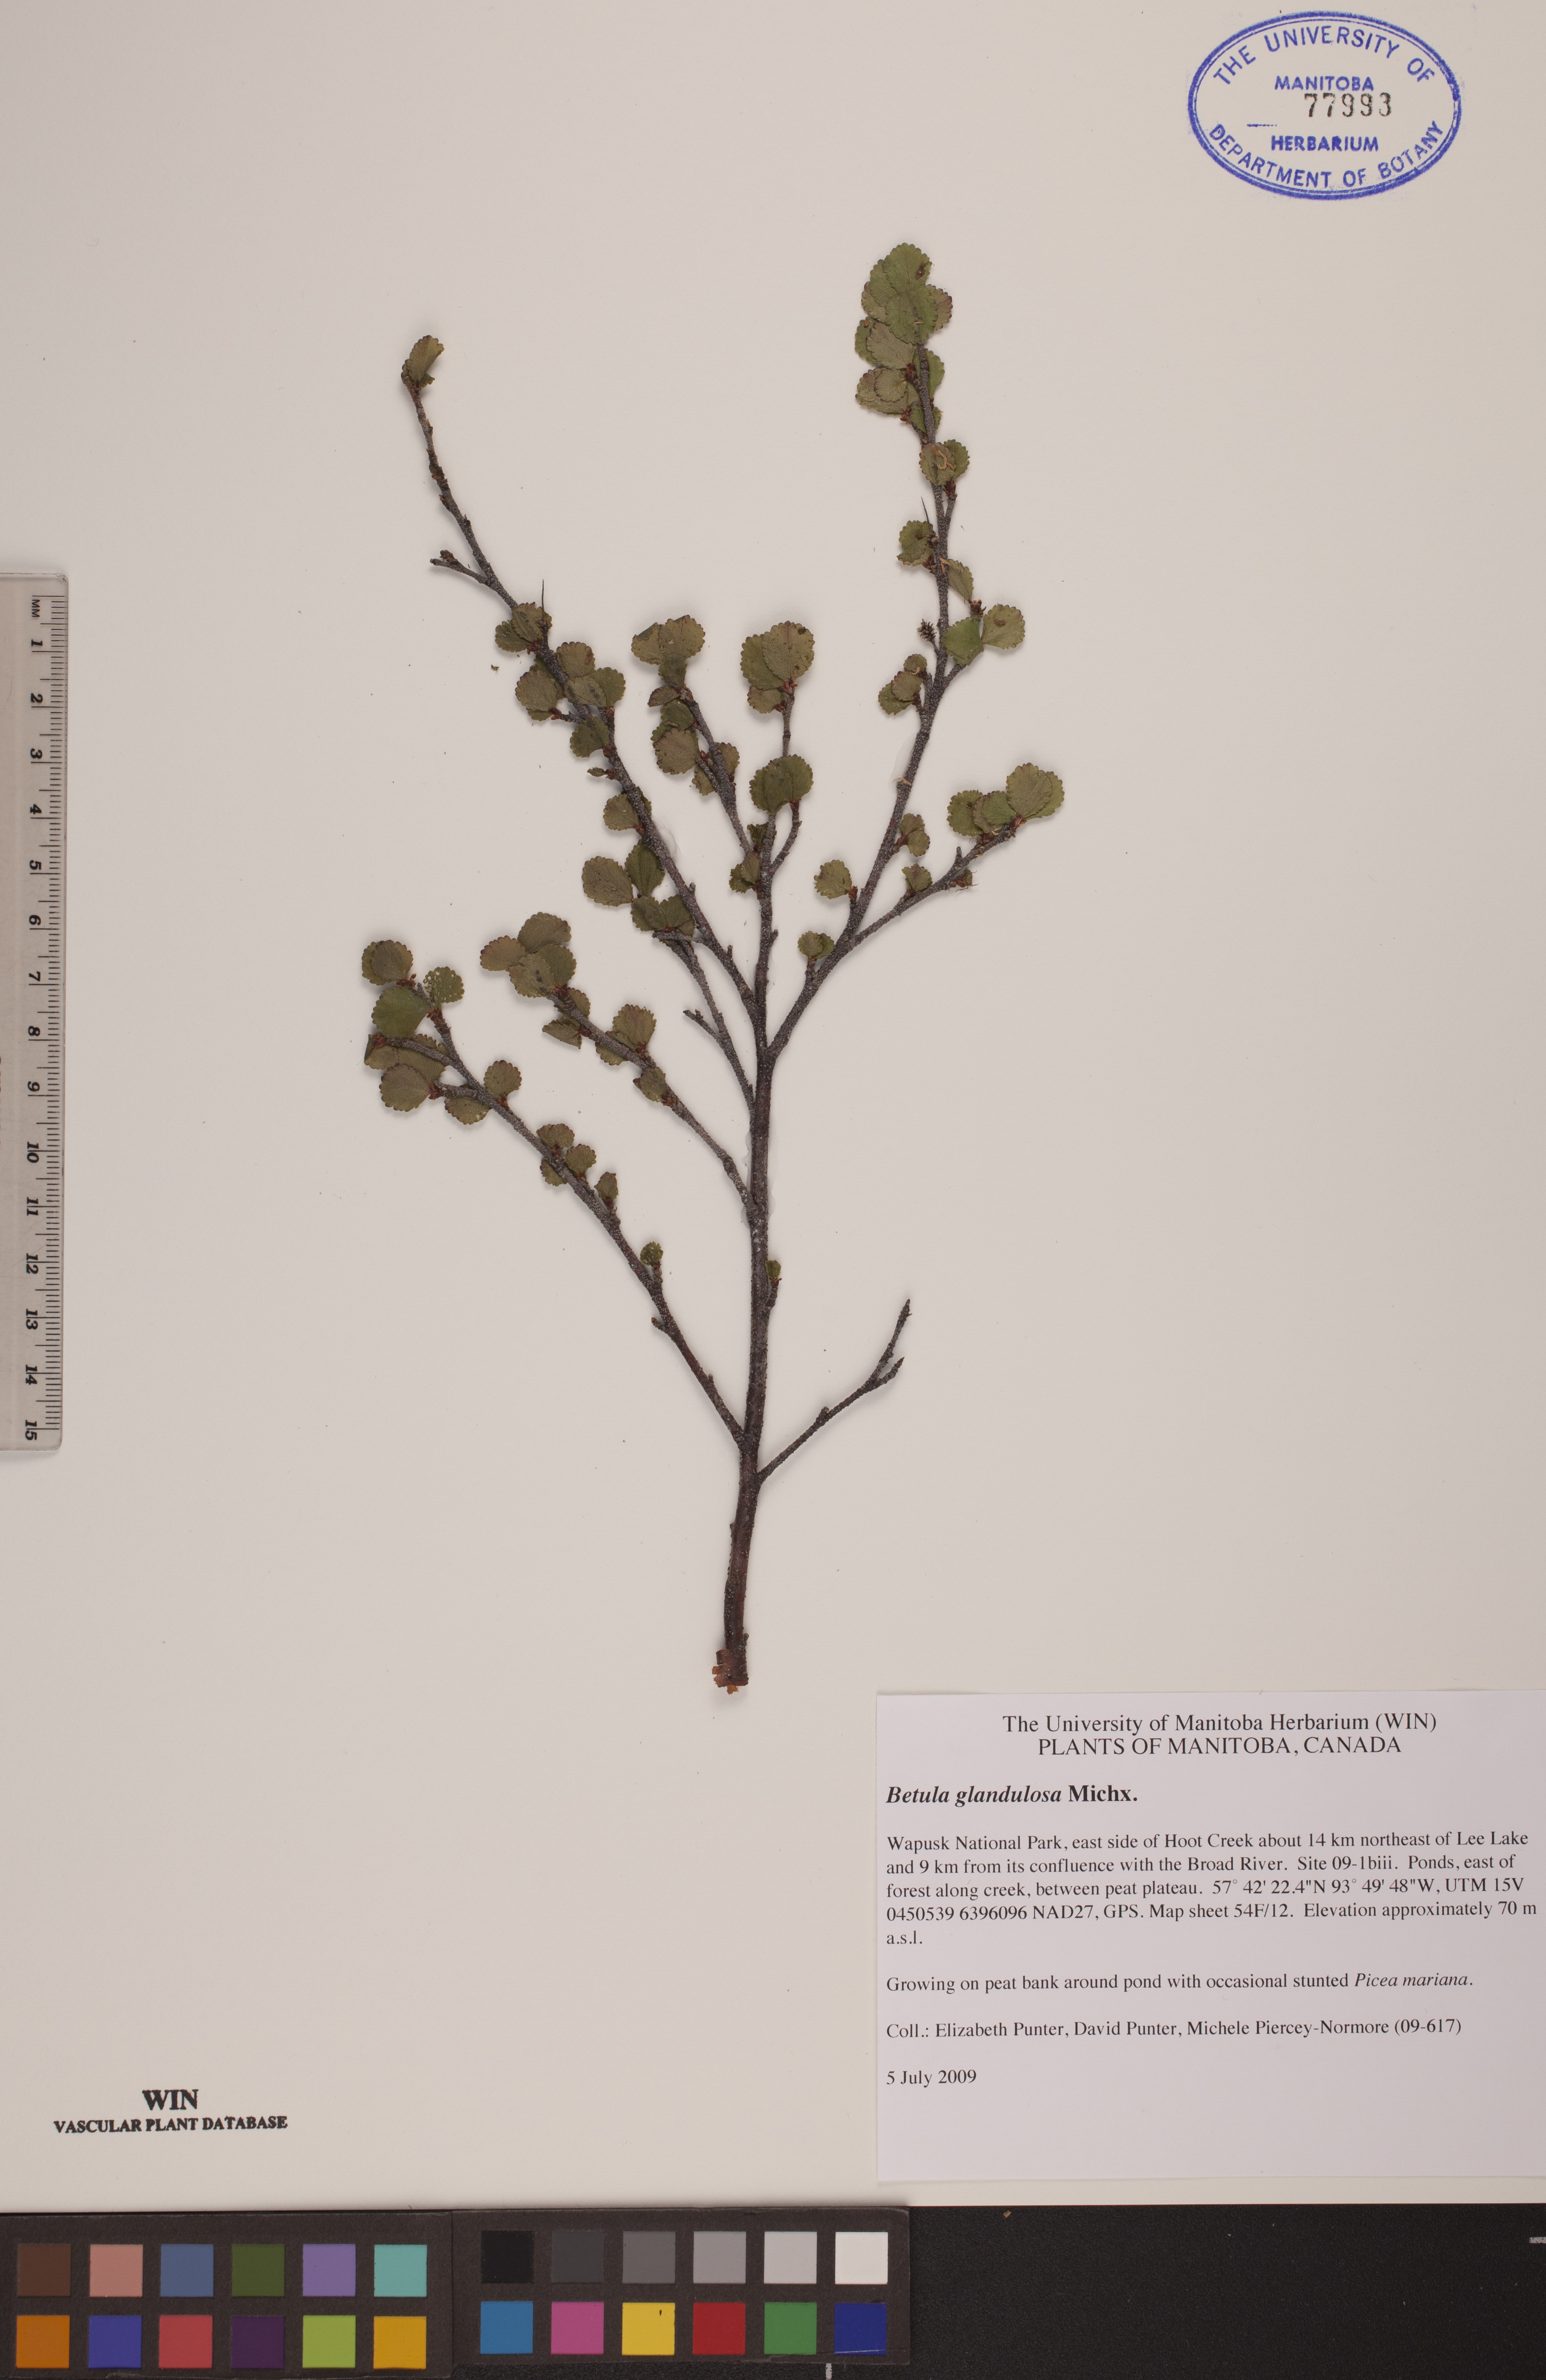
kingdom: Plantae
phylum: Tracheophyta
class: Magnoliopsida
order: Fagales
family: Betulaceae
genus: Betula
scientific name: Betula glandulosa
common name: Dwarf birch
